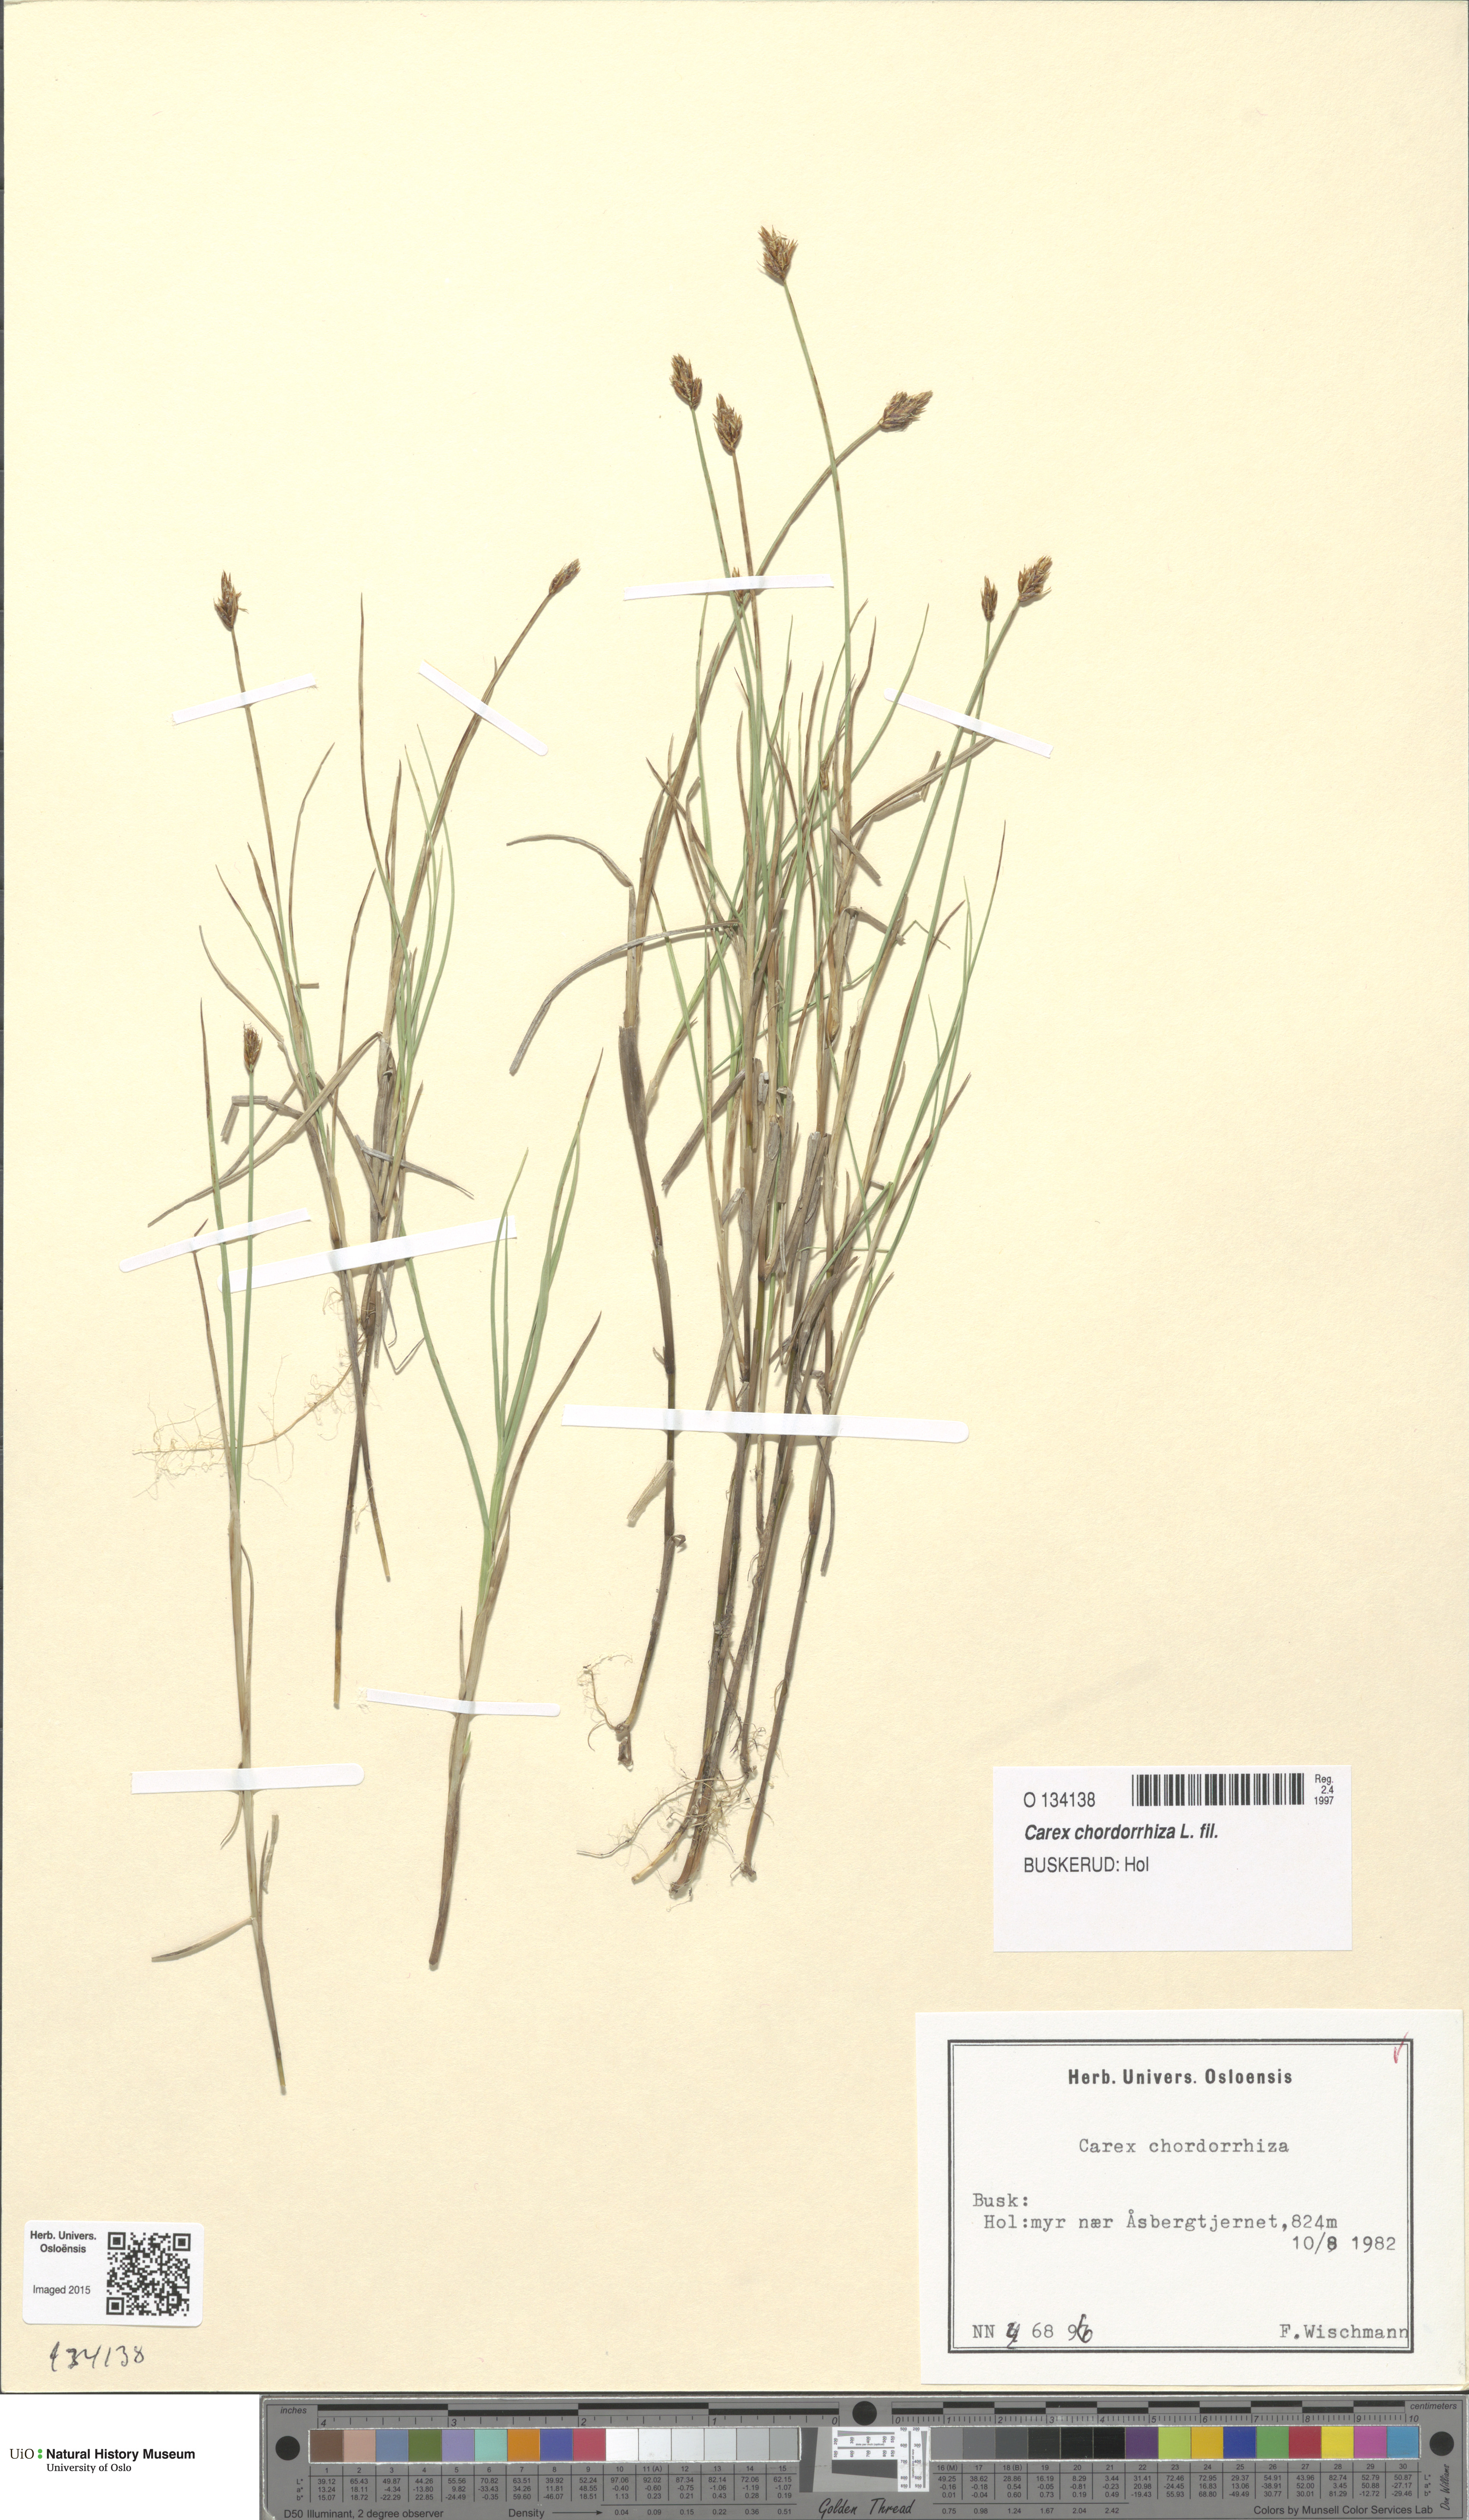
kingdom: Plantae
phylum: Tracheophyta
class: Liliopsida
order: Poales
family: Cyperaceae
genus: Carex
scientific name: Carex chordorrhiza
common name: String sedge
